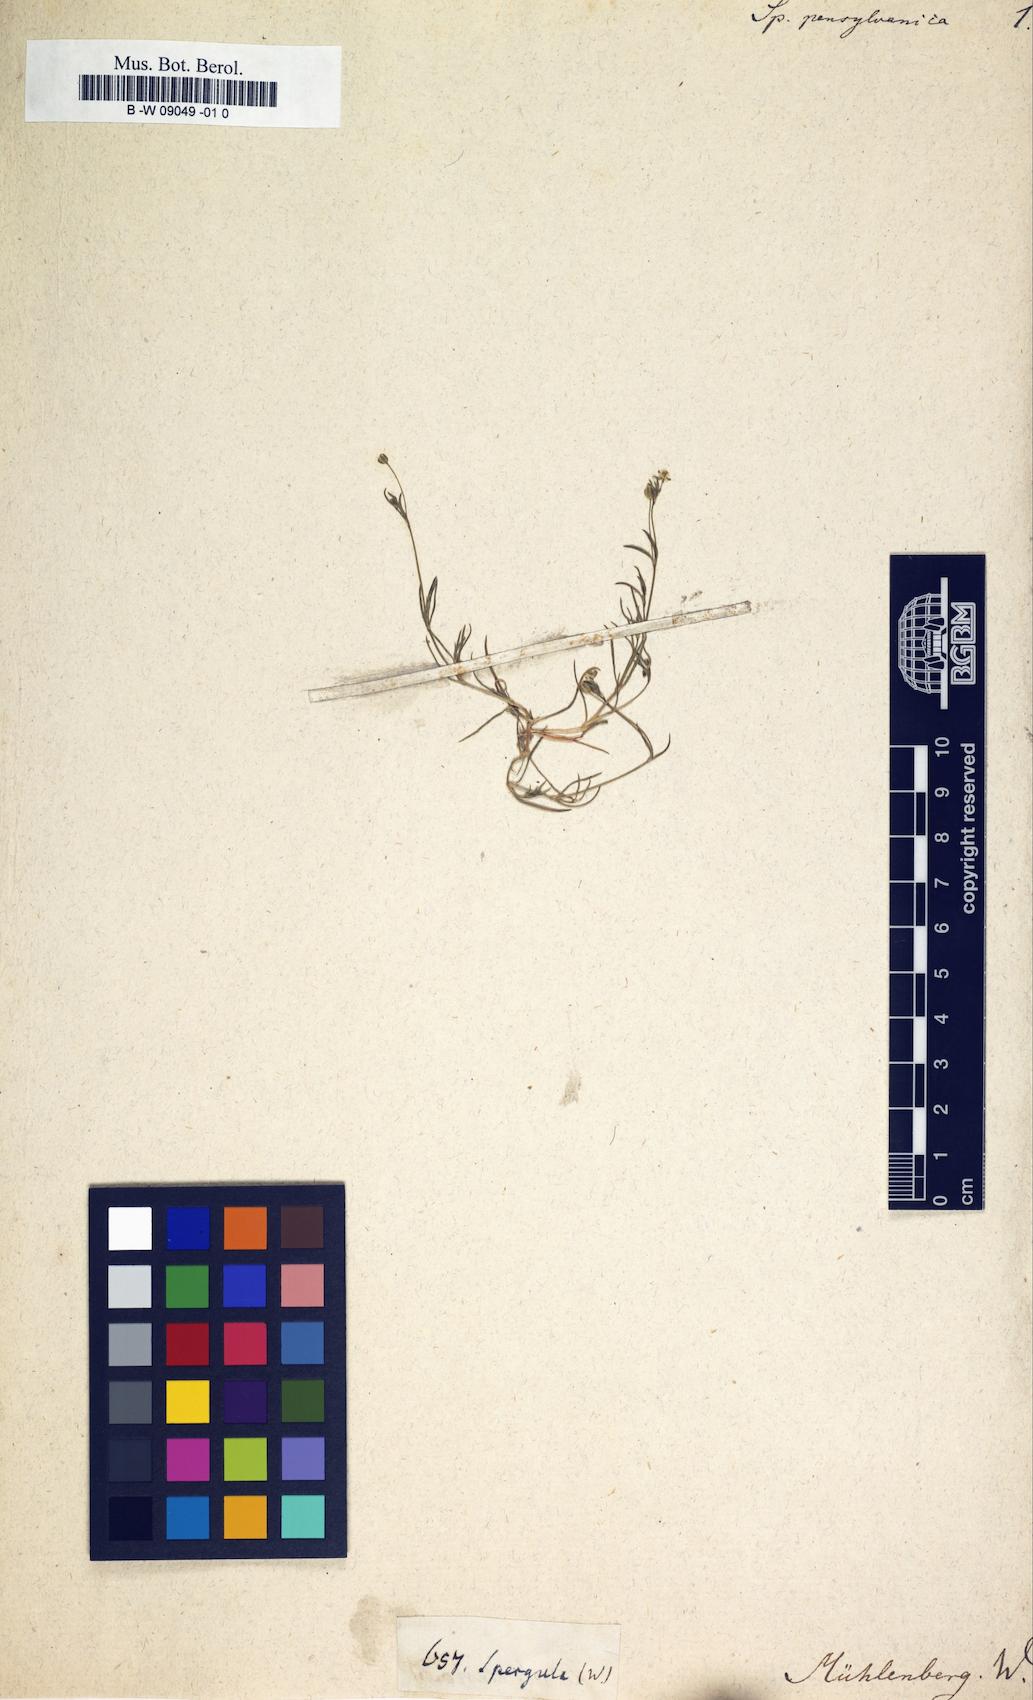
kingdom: Plantae
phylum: Tracheophyta
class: Magnoliopsida
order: Caryophyllales
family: Caryophyllaceae
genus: Spergula
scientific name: Spergula
